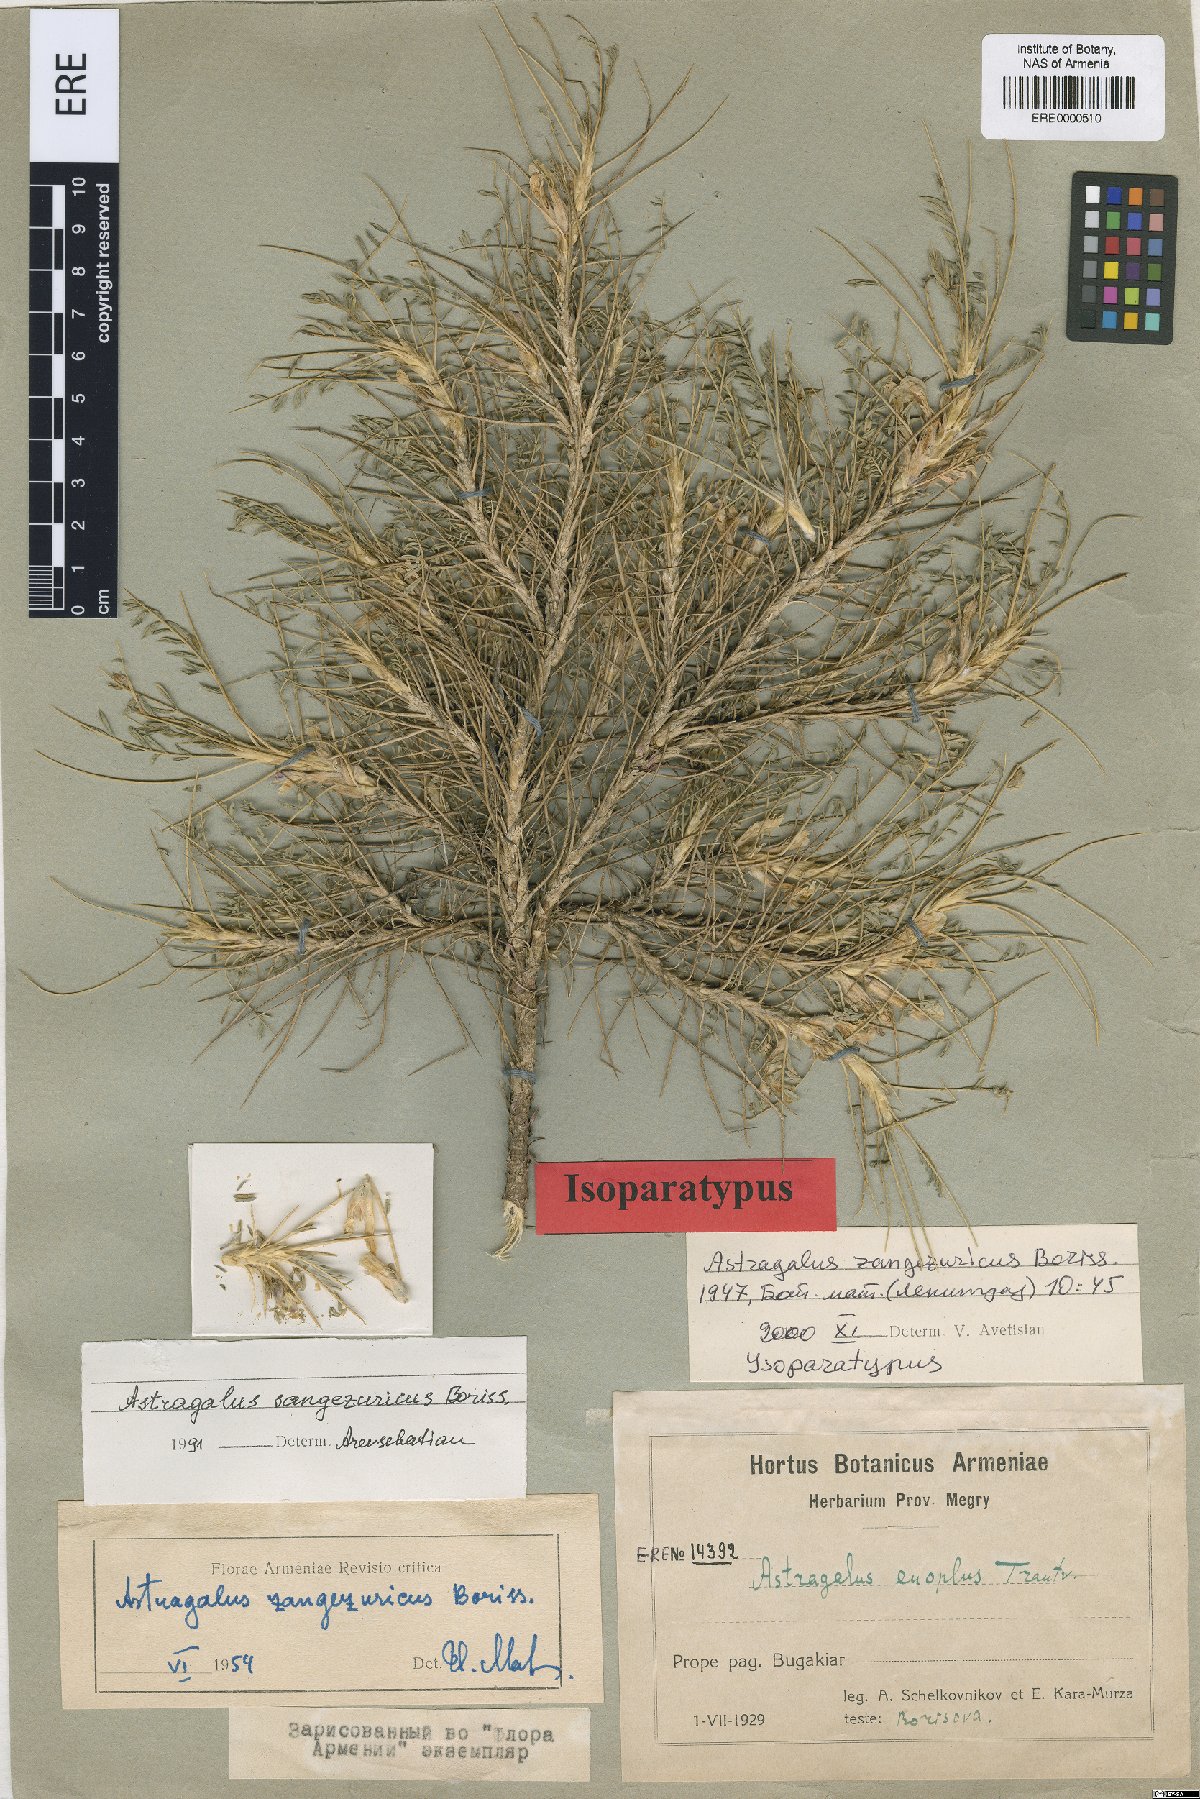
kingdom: Plantae
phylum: Tracheophyta
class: Magnoliopsida
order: Fabales
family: Fabaceae
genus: Astragalus
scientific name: Astragalus sangesuricus
